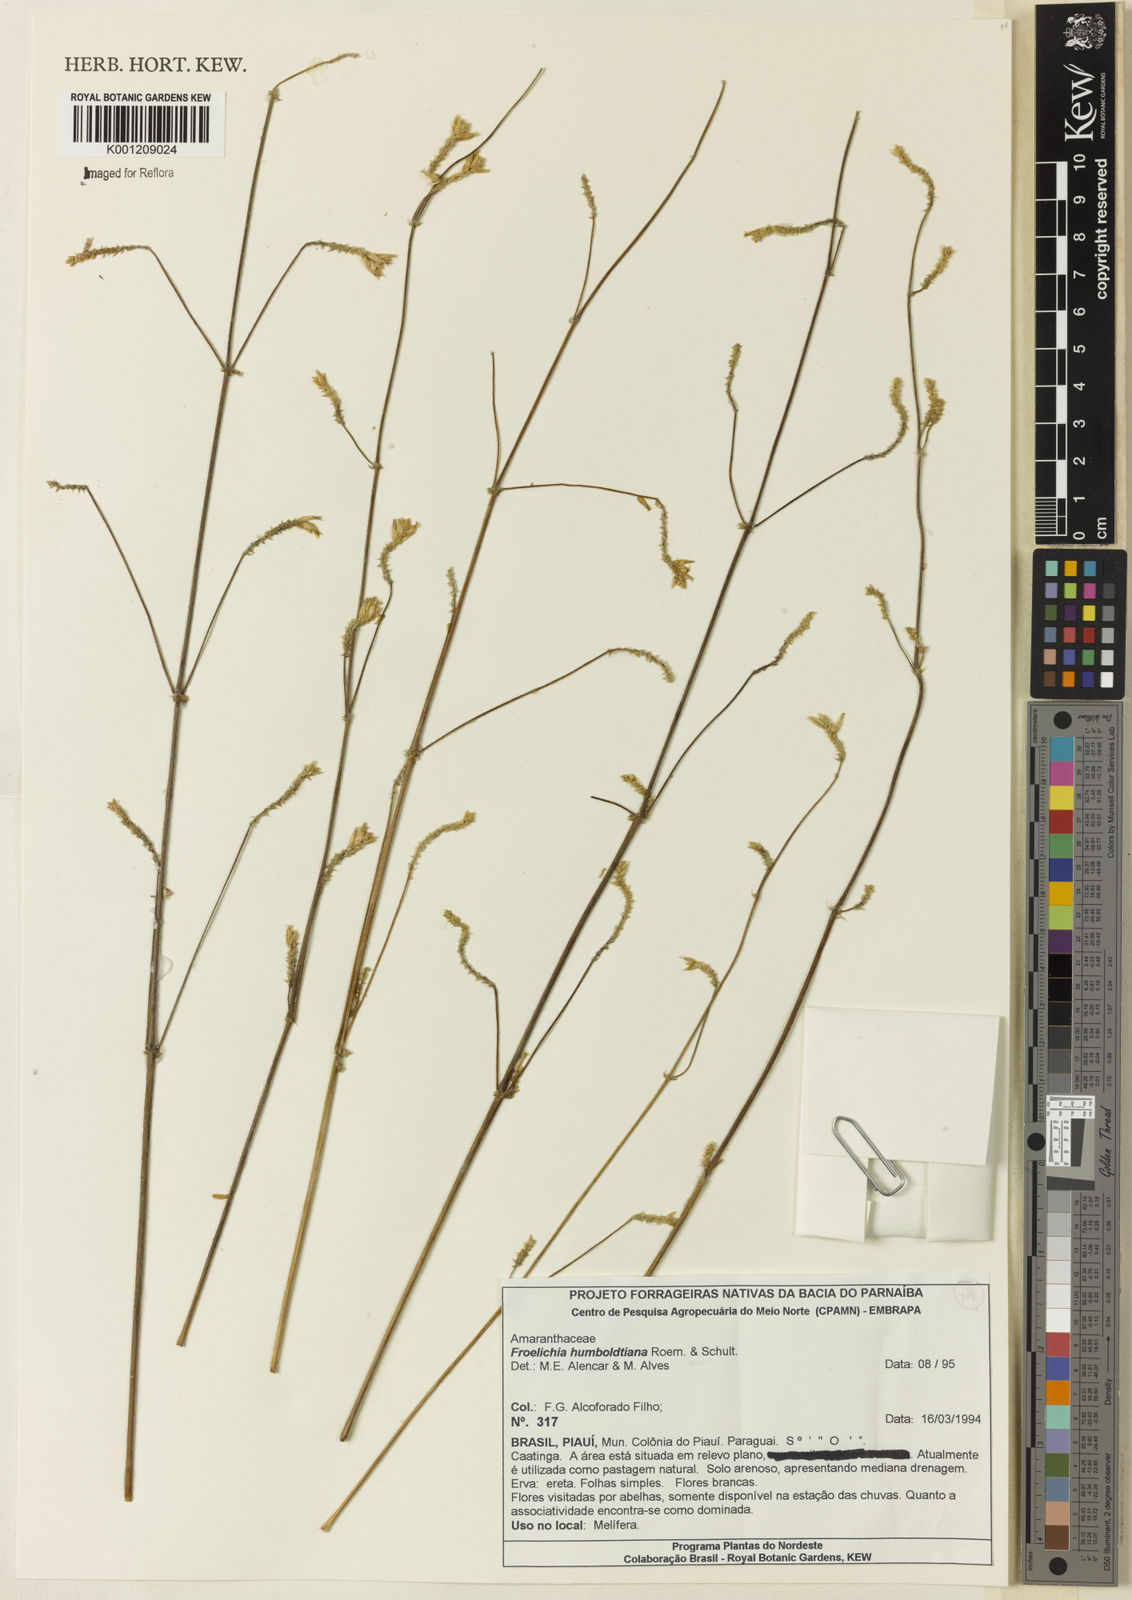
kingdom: Plantae
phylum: Tracheophyta
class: Magnoliopsida
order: Caryophyllales
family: Amaranthaceae
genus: Froelichia
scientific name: Froelichia humboldtiana
